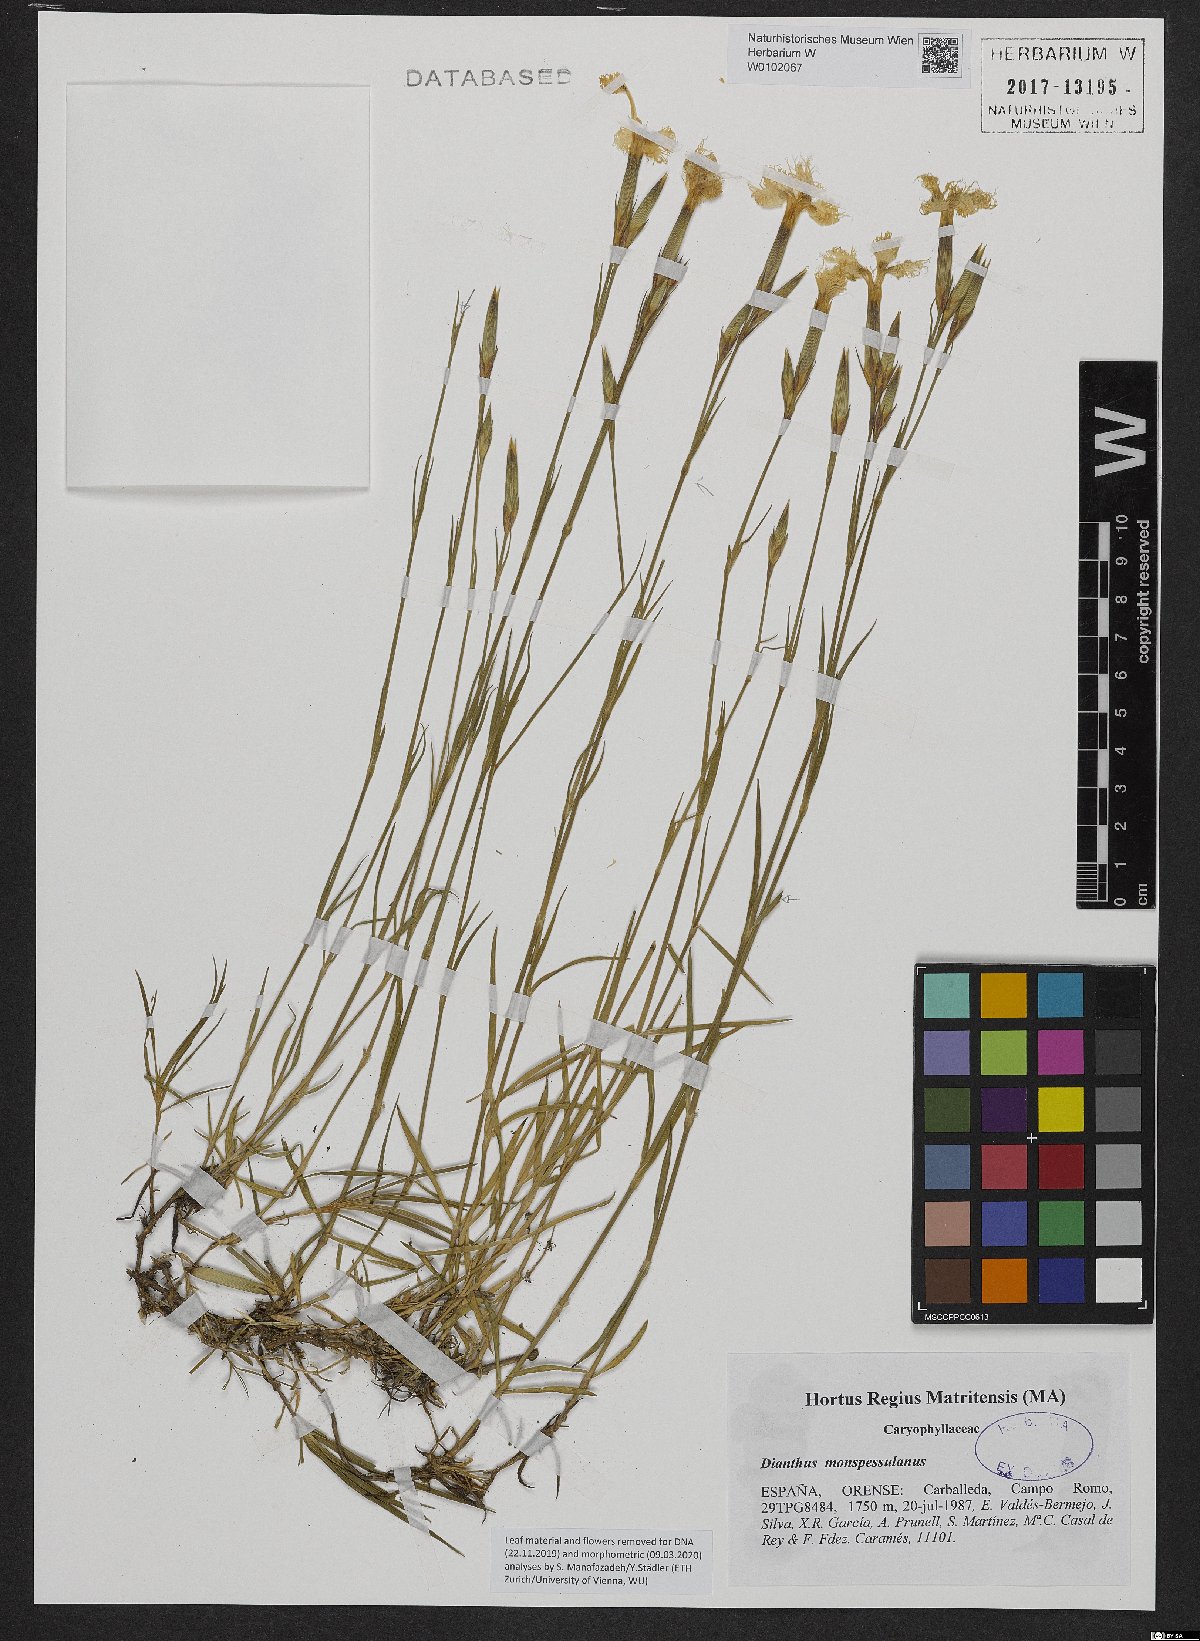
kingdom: Plantae
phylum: Tracheophyta
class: Magnoliopsida
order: Caryophyllales
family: Caryophyllaceae
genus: Dianthus
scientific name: Dianthus hyssopifolius
